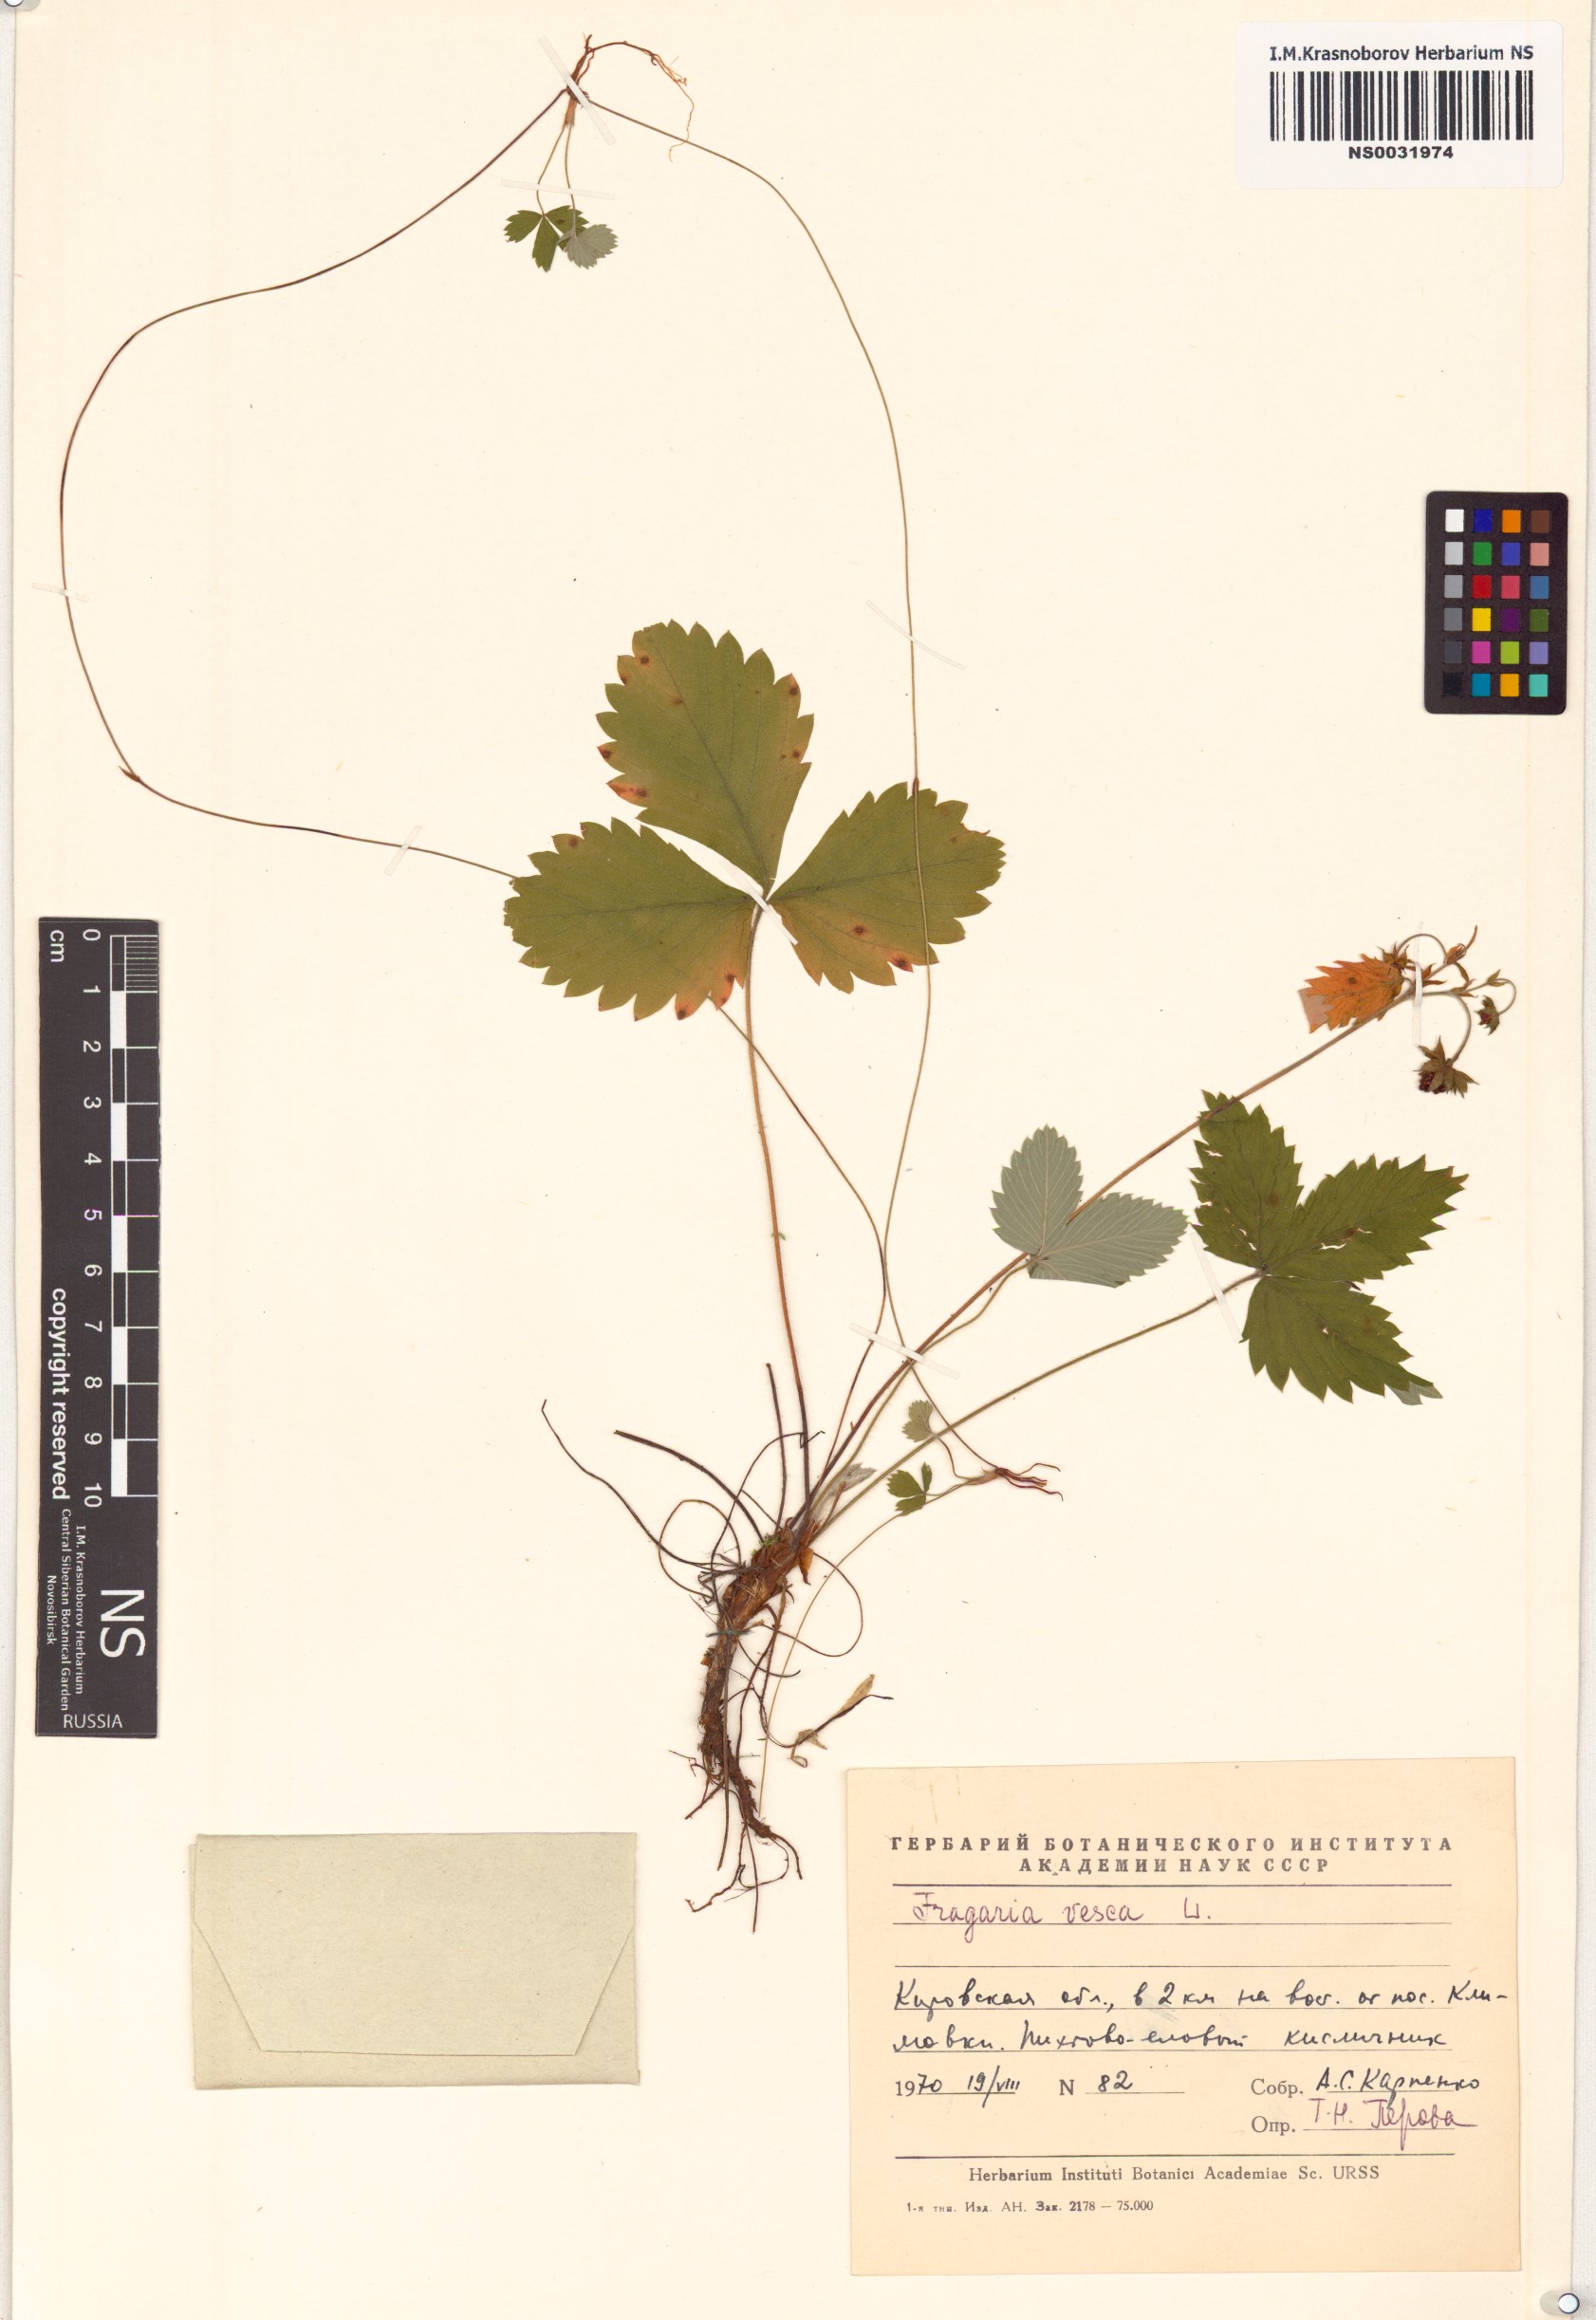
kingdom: Plantae
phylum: Tracheophyta
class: Magnoliopsida
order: Rosales
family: Rosaceae
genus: Fragaria
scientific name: Fragaria vesca
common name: Wild strawberry
